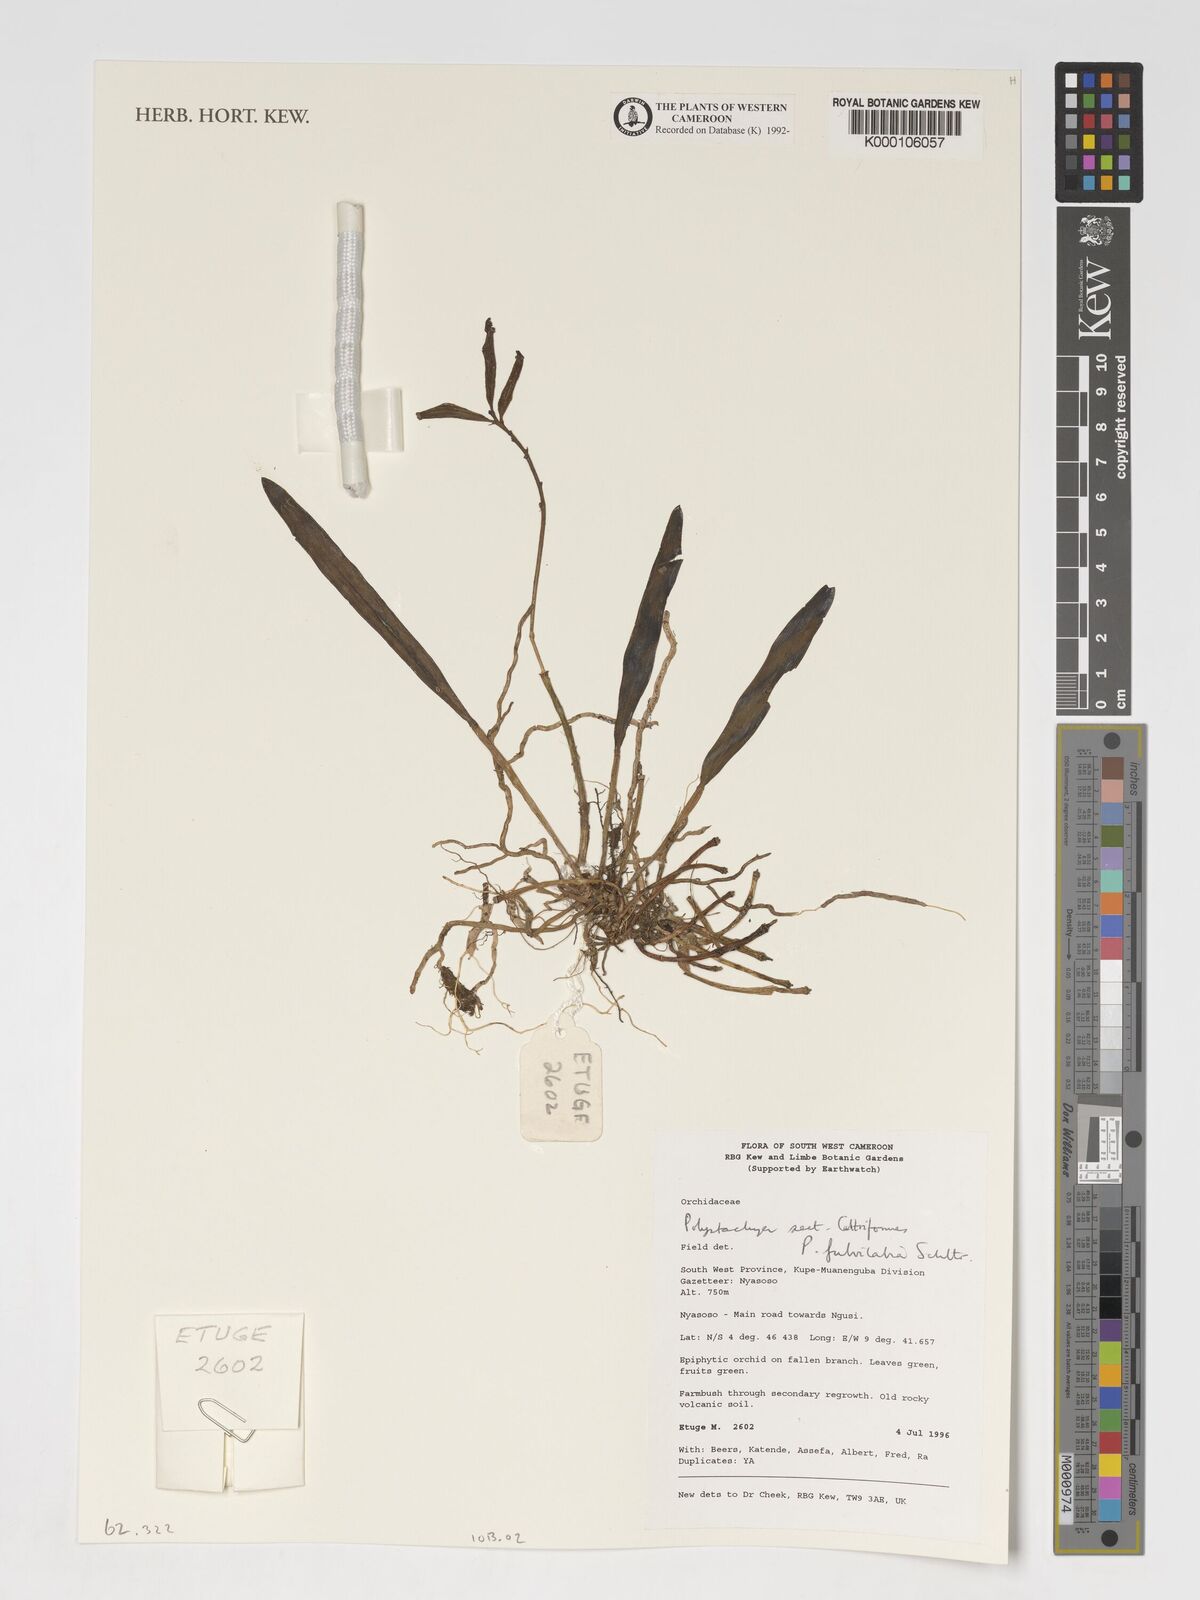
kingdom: Plantae
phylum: Tracheophyta
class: Liliopsida
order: Asparagales
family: Orchidaceae
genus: Polystachya
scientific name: Polystachya fulvilabia
